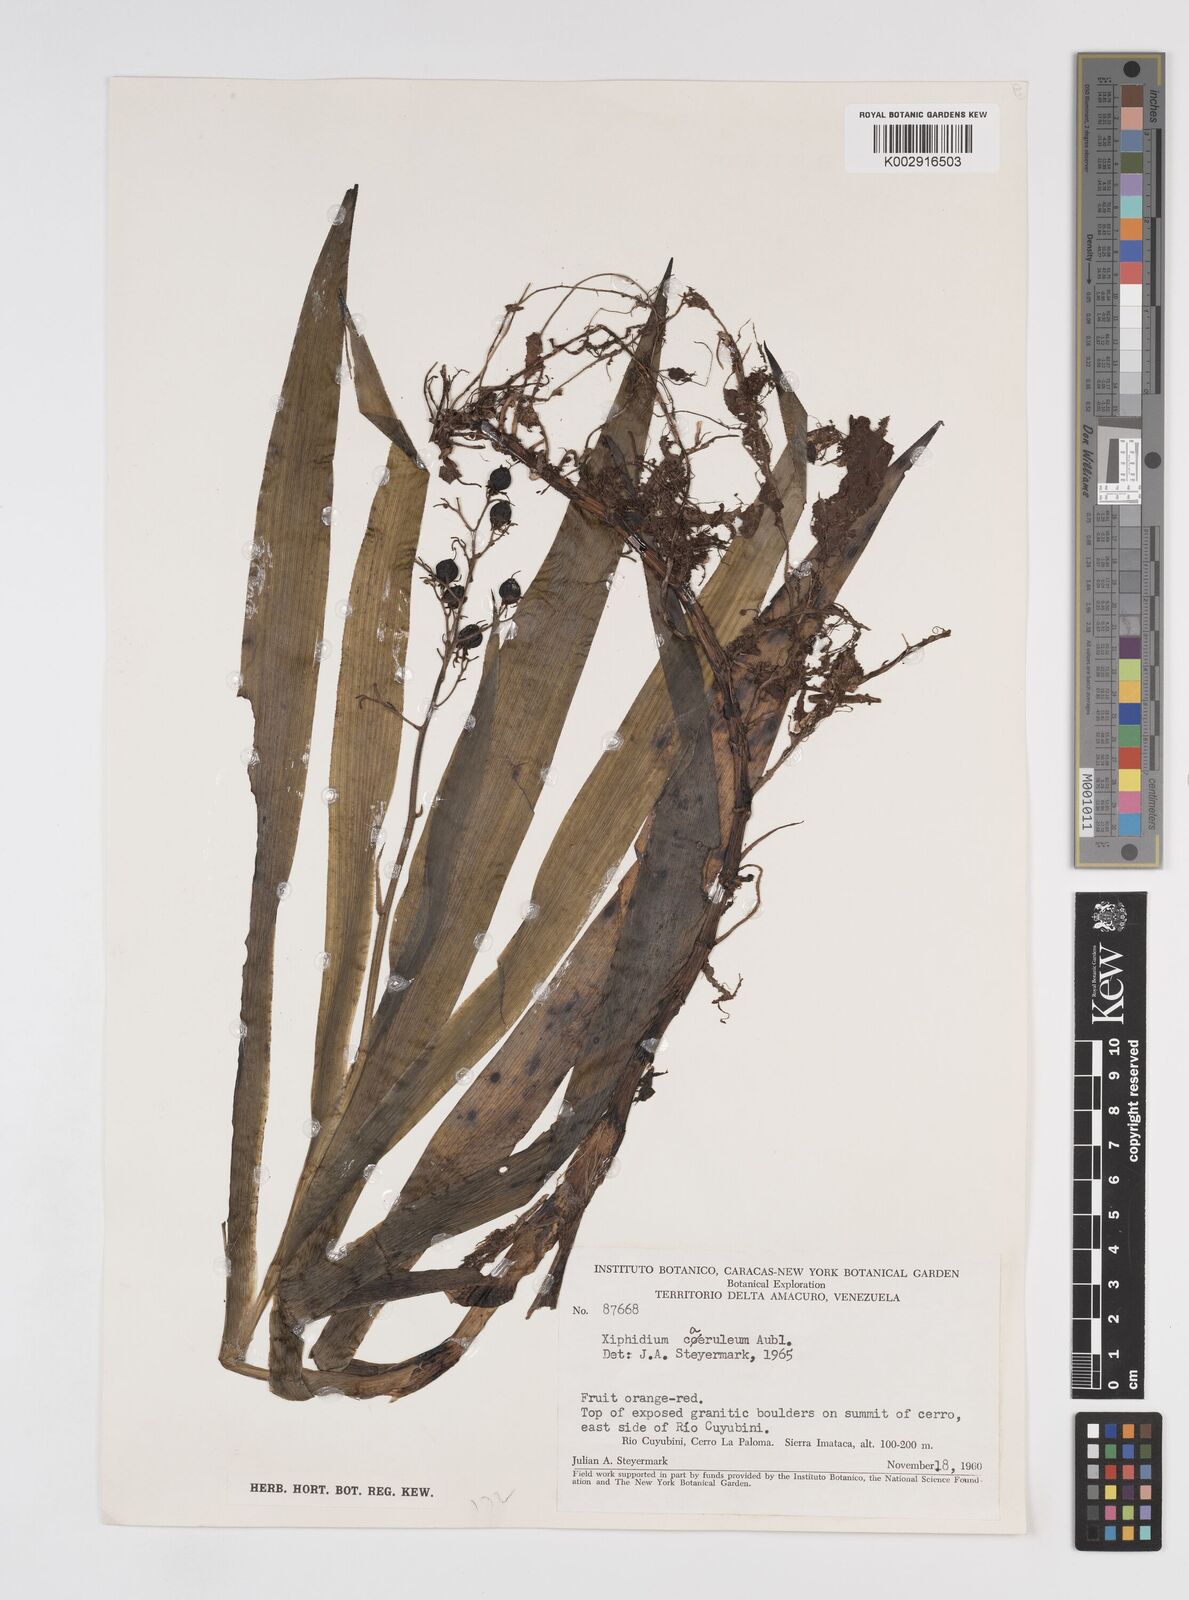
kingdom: Plantae
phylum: Tracheophyta
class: Liliopsida
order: Commelinales
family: Haemodoraceae
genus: Xiphidium
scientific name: Xiphidium caeruleum
